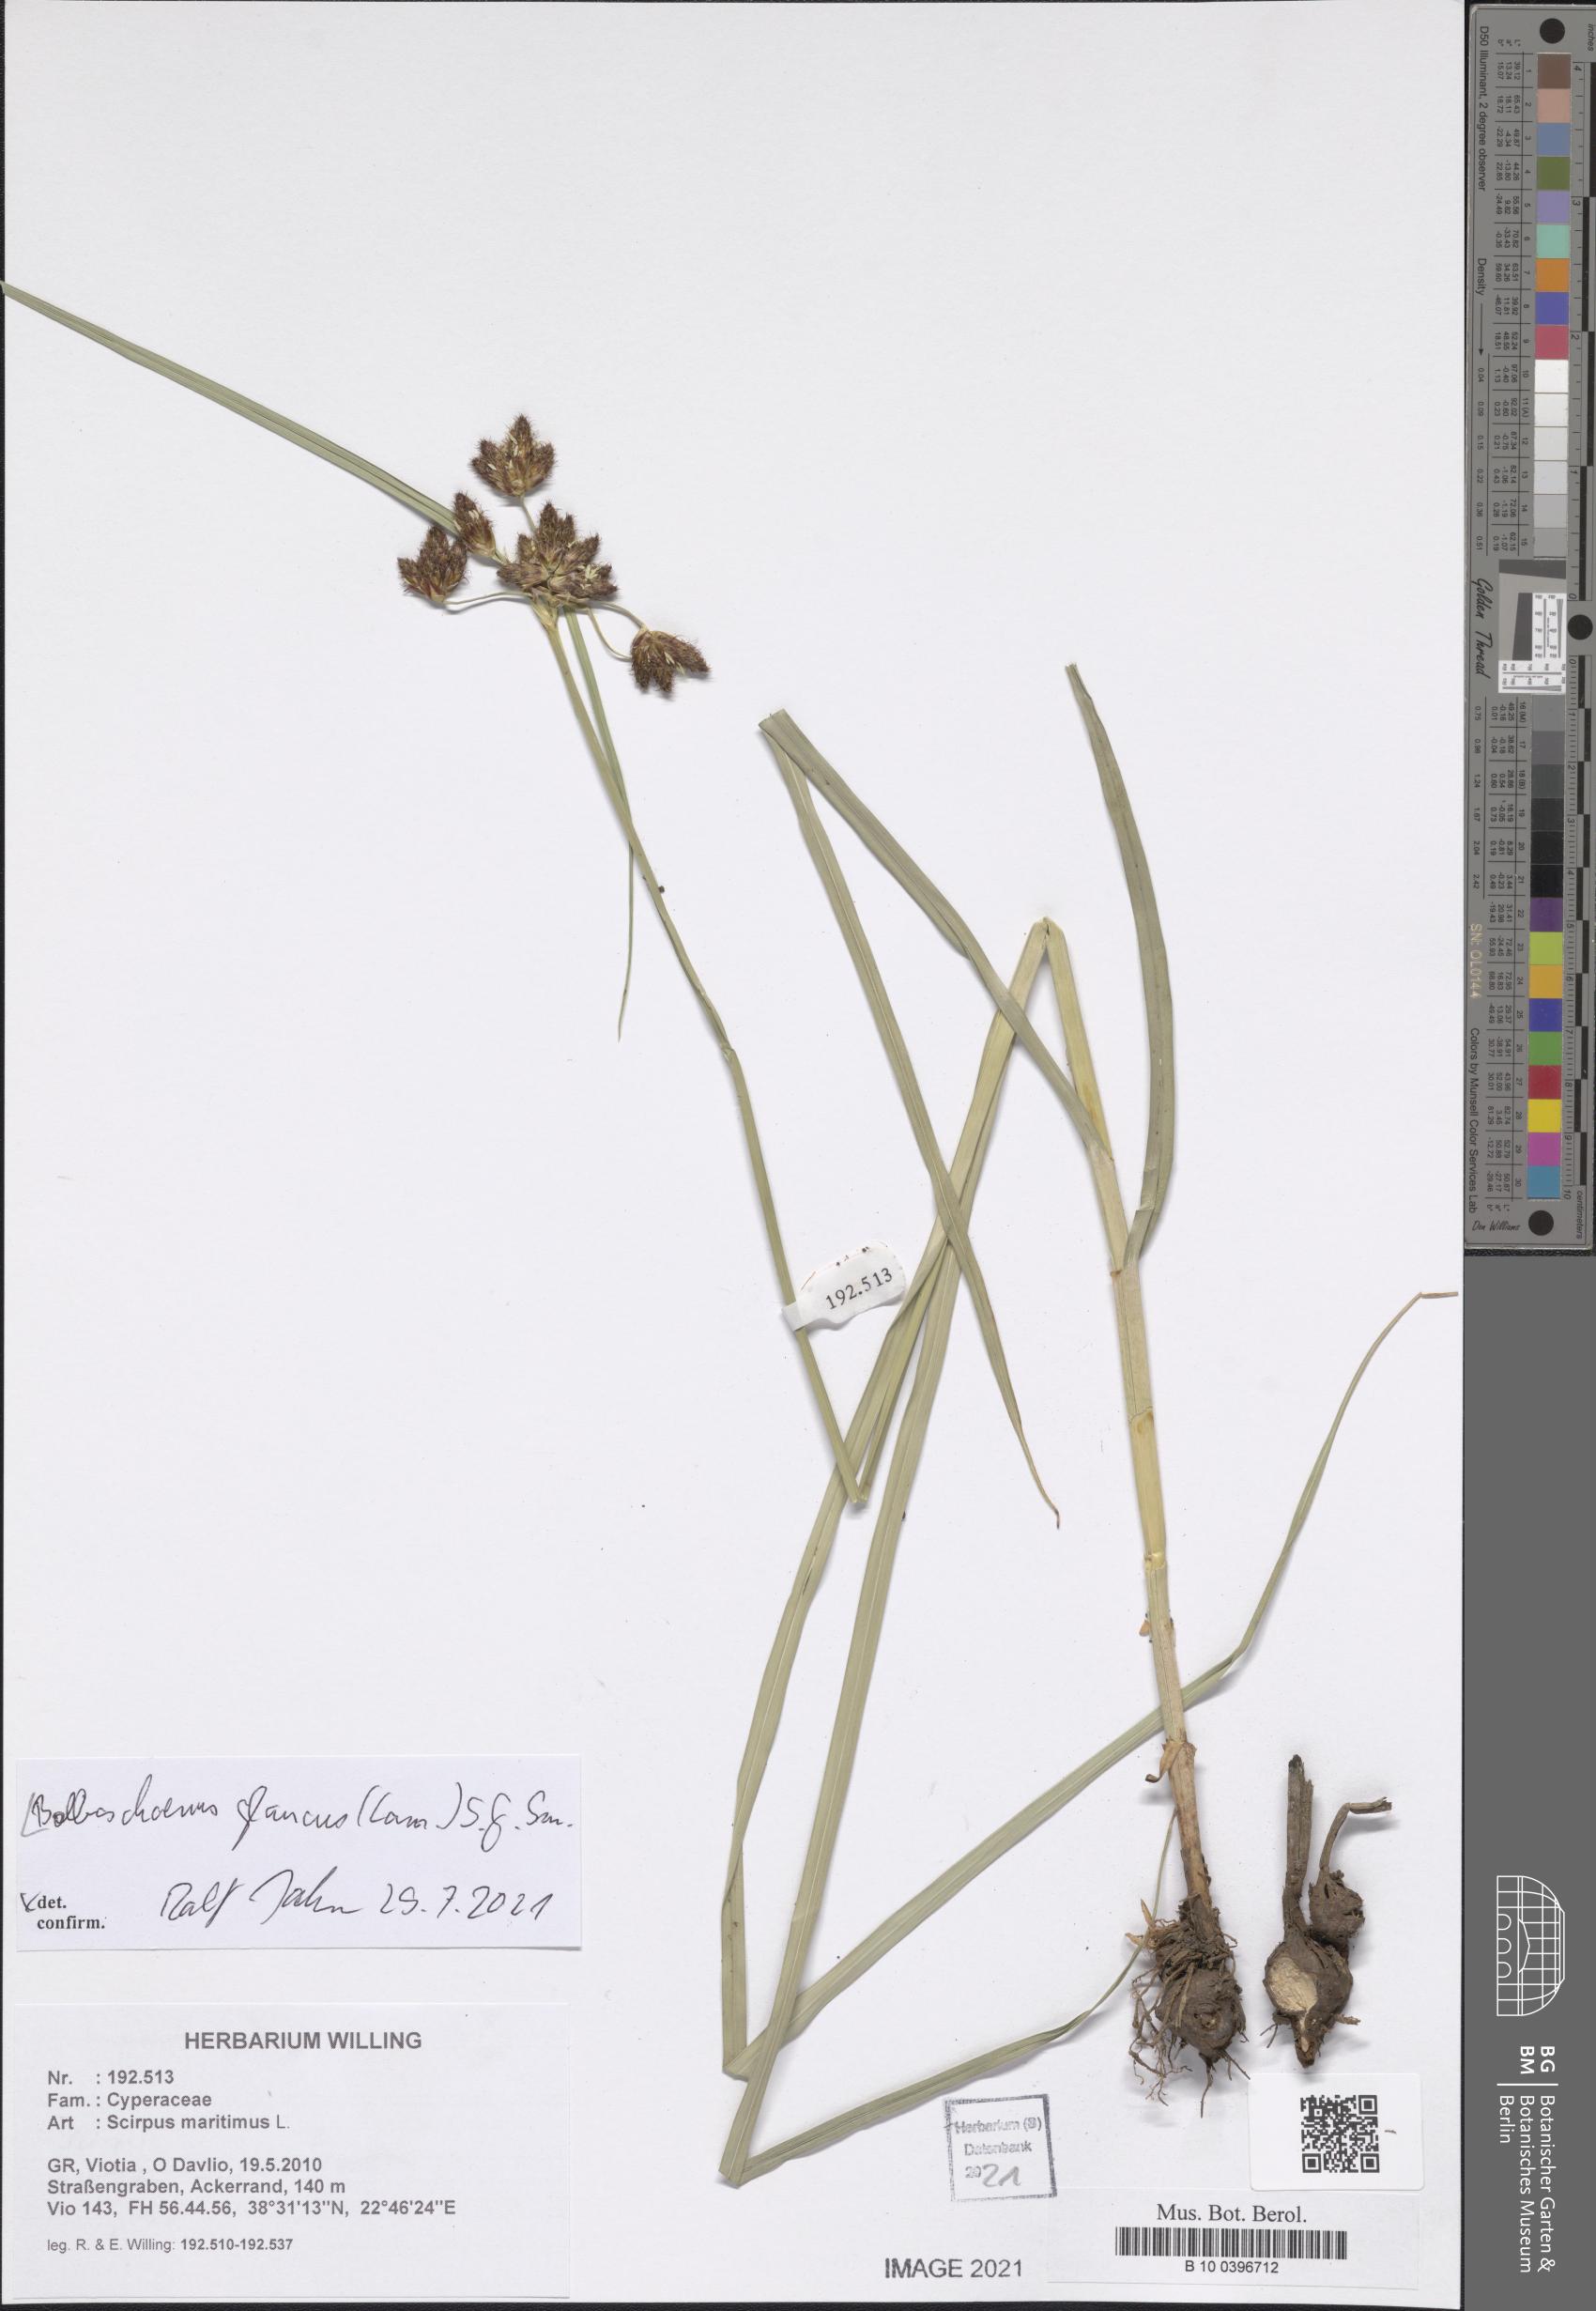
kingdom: Plantae
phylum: Tracheophyta
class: Liliopsida
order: Poales
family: Cyperaceae
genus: Bolboschoenus
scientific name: Bolboschoenus glaucus
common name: Tuberous bulrush
